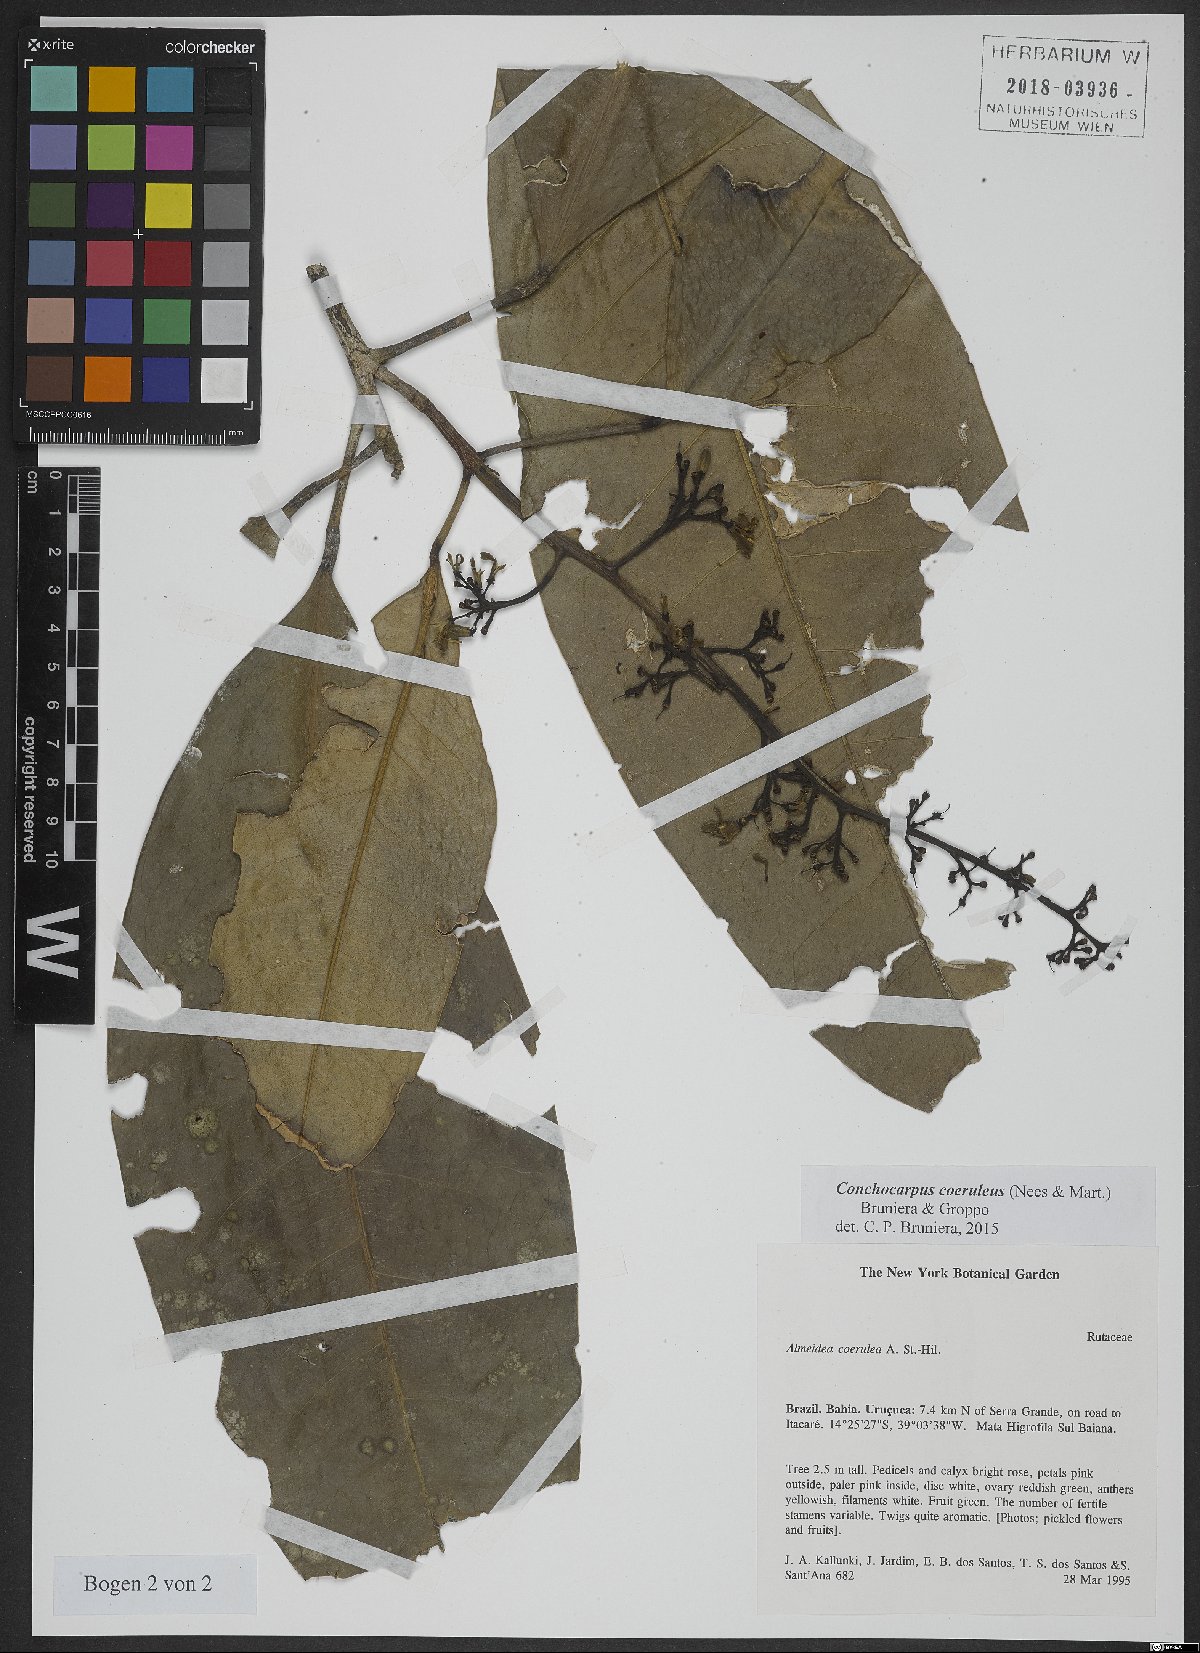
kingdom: Plantae
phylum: Tracheophyta
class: Magnoliopsida
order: Sapindales
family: Rutaceae
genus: Conchocarpus
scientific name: Conchocarpus coeruleus
